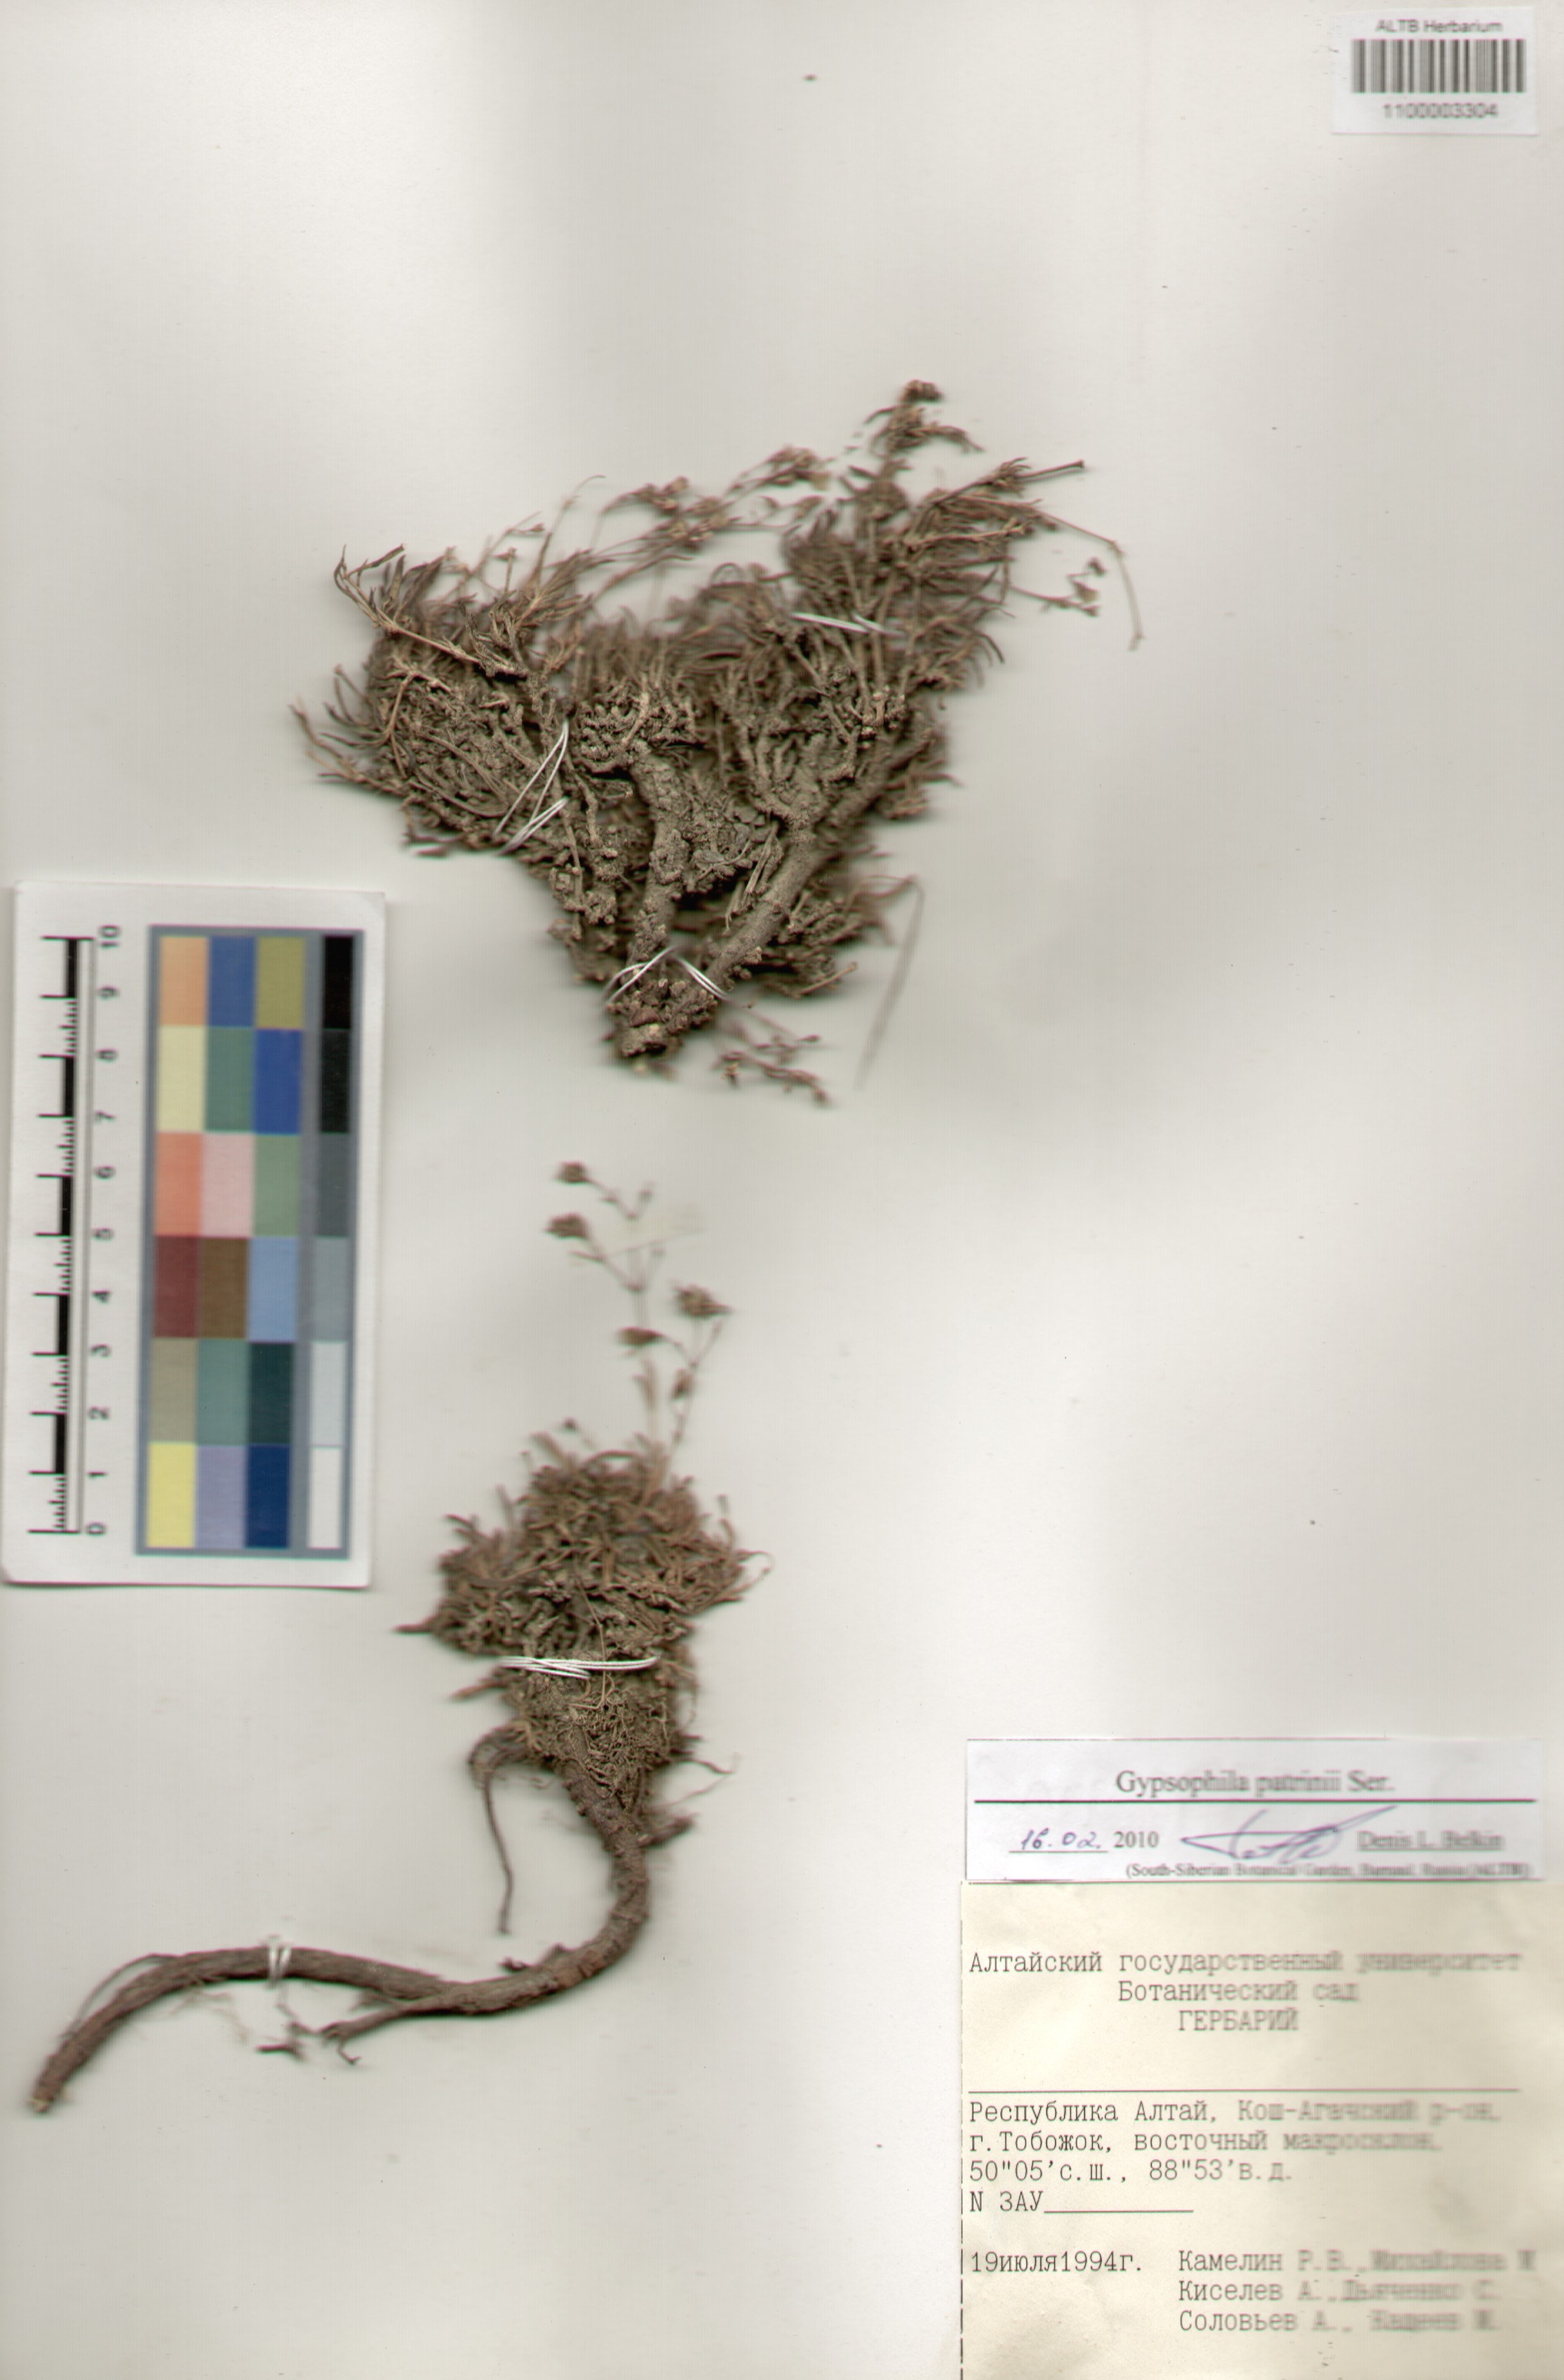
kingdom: Plantae
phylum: Tracheophyta
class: Magnoliopsida
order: Caryophyllales
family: Caryophyllaceae
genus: Gypsophila
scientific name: Gypsophila patrinii
